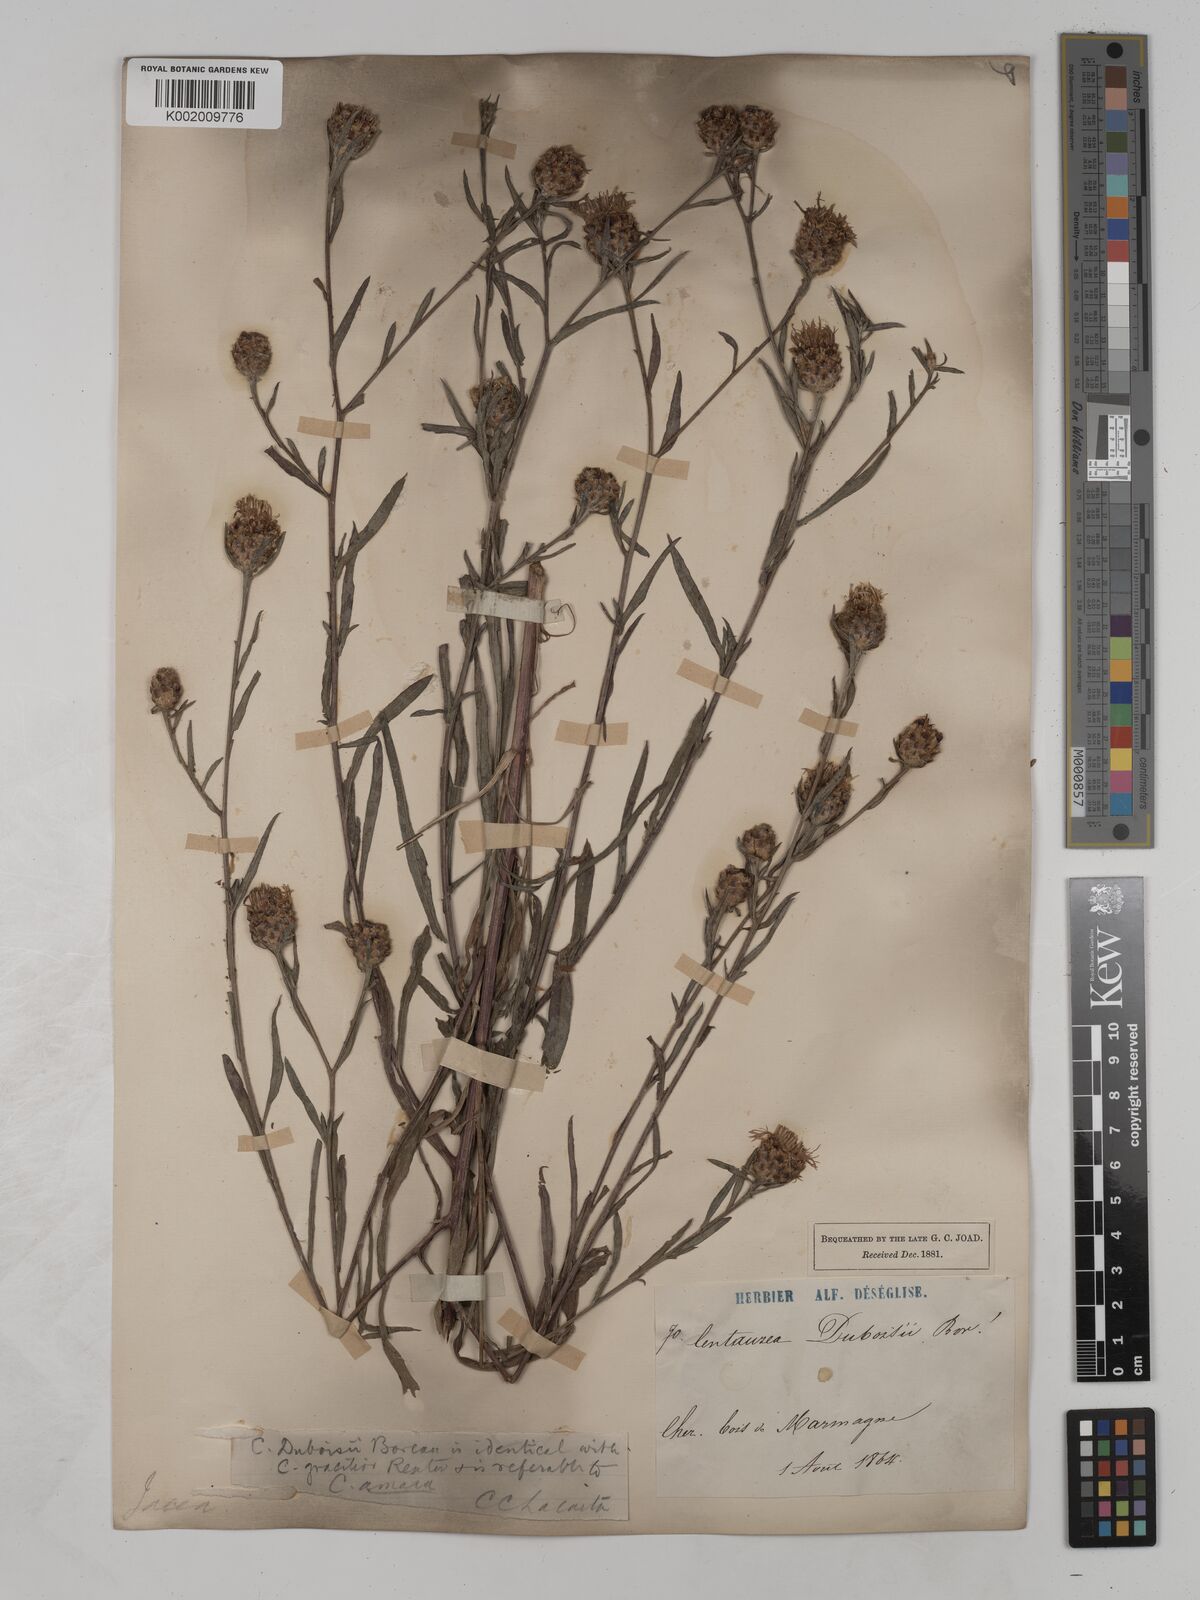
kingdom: Plantae
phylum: Tracheophyta
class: Magnoliopsida
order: Asterales
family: Asteraceae
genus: Centaurea
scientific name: Centaurea timbalii
